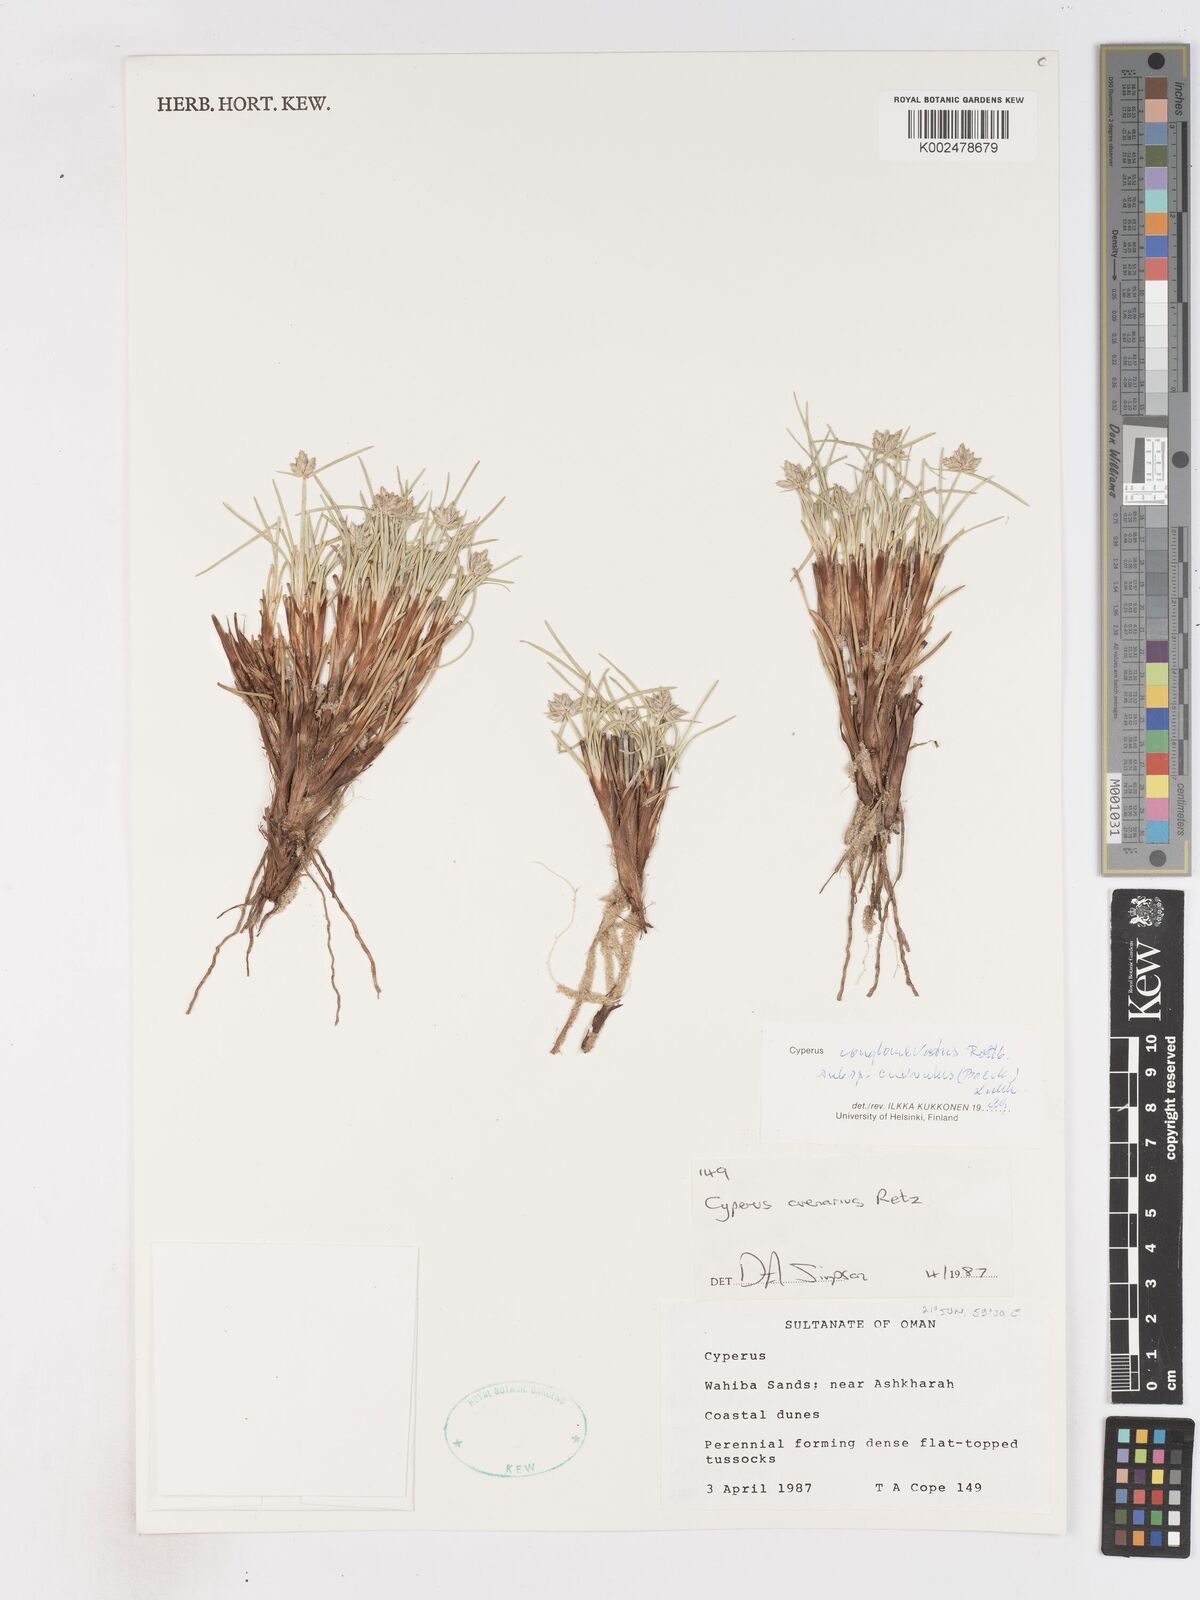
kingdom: Plantae
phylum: Tracheophyta
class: Liliopsida
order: Poales
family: Cyperaceae
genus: Cyperus
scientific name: Cyperus conglomeratus
